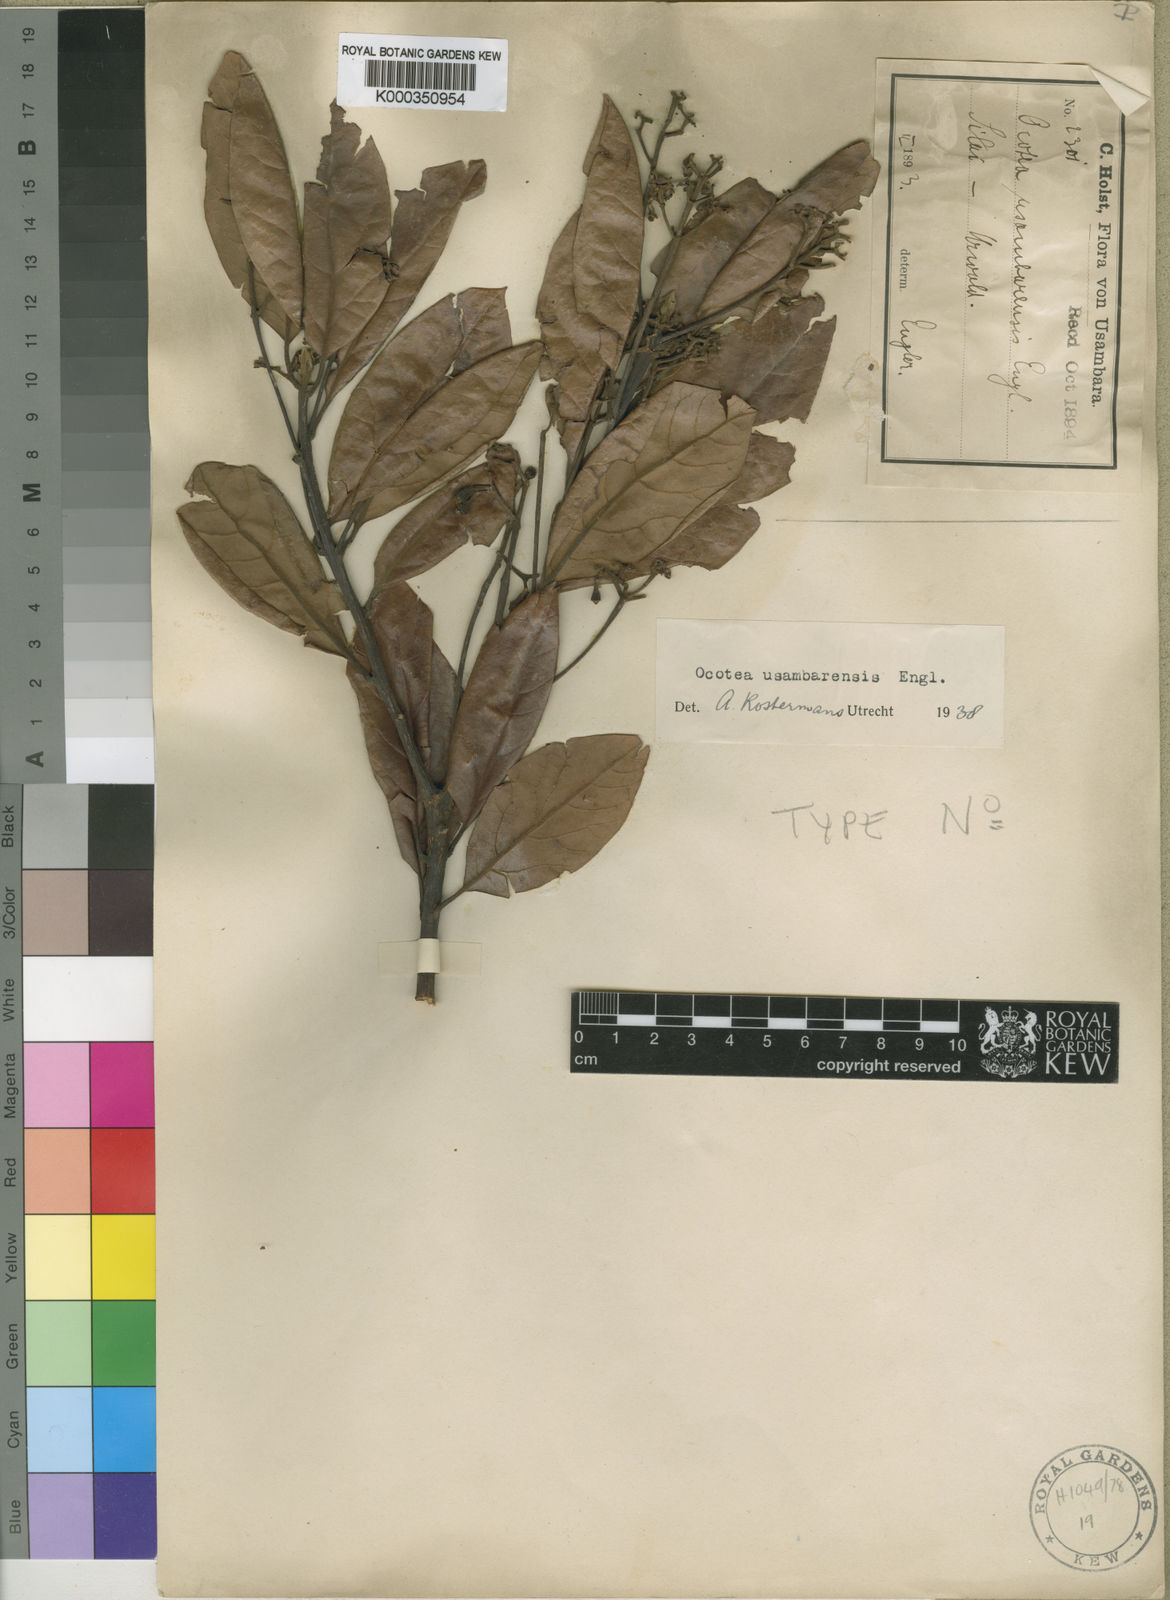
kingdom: Plantae
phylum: Tracheophyta
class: Magnoliopsida
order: Laurales
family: Lauraceae
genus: Kuloa
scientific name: Kuloa usambarensis
